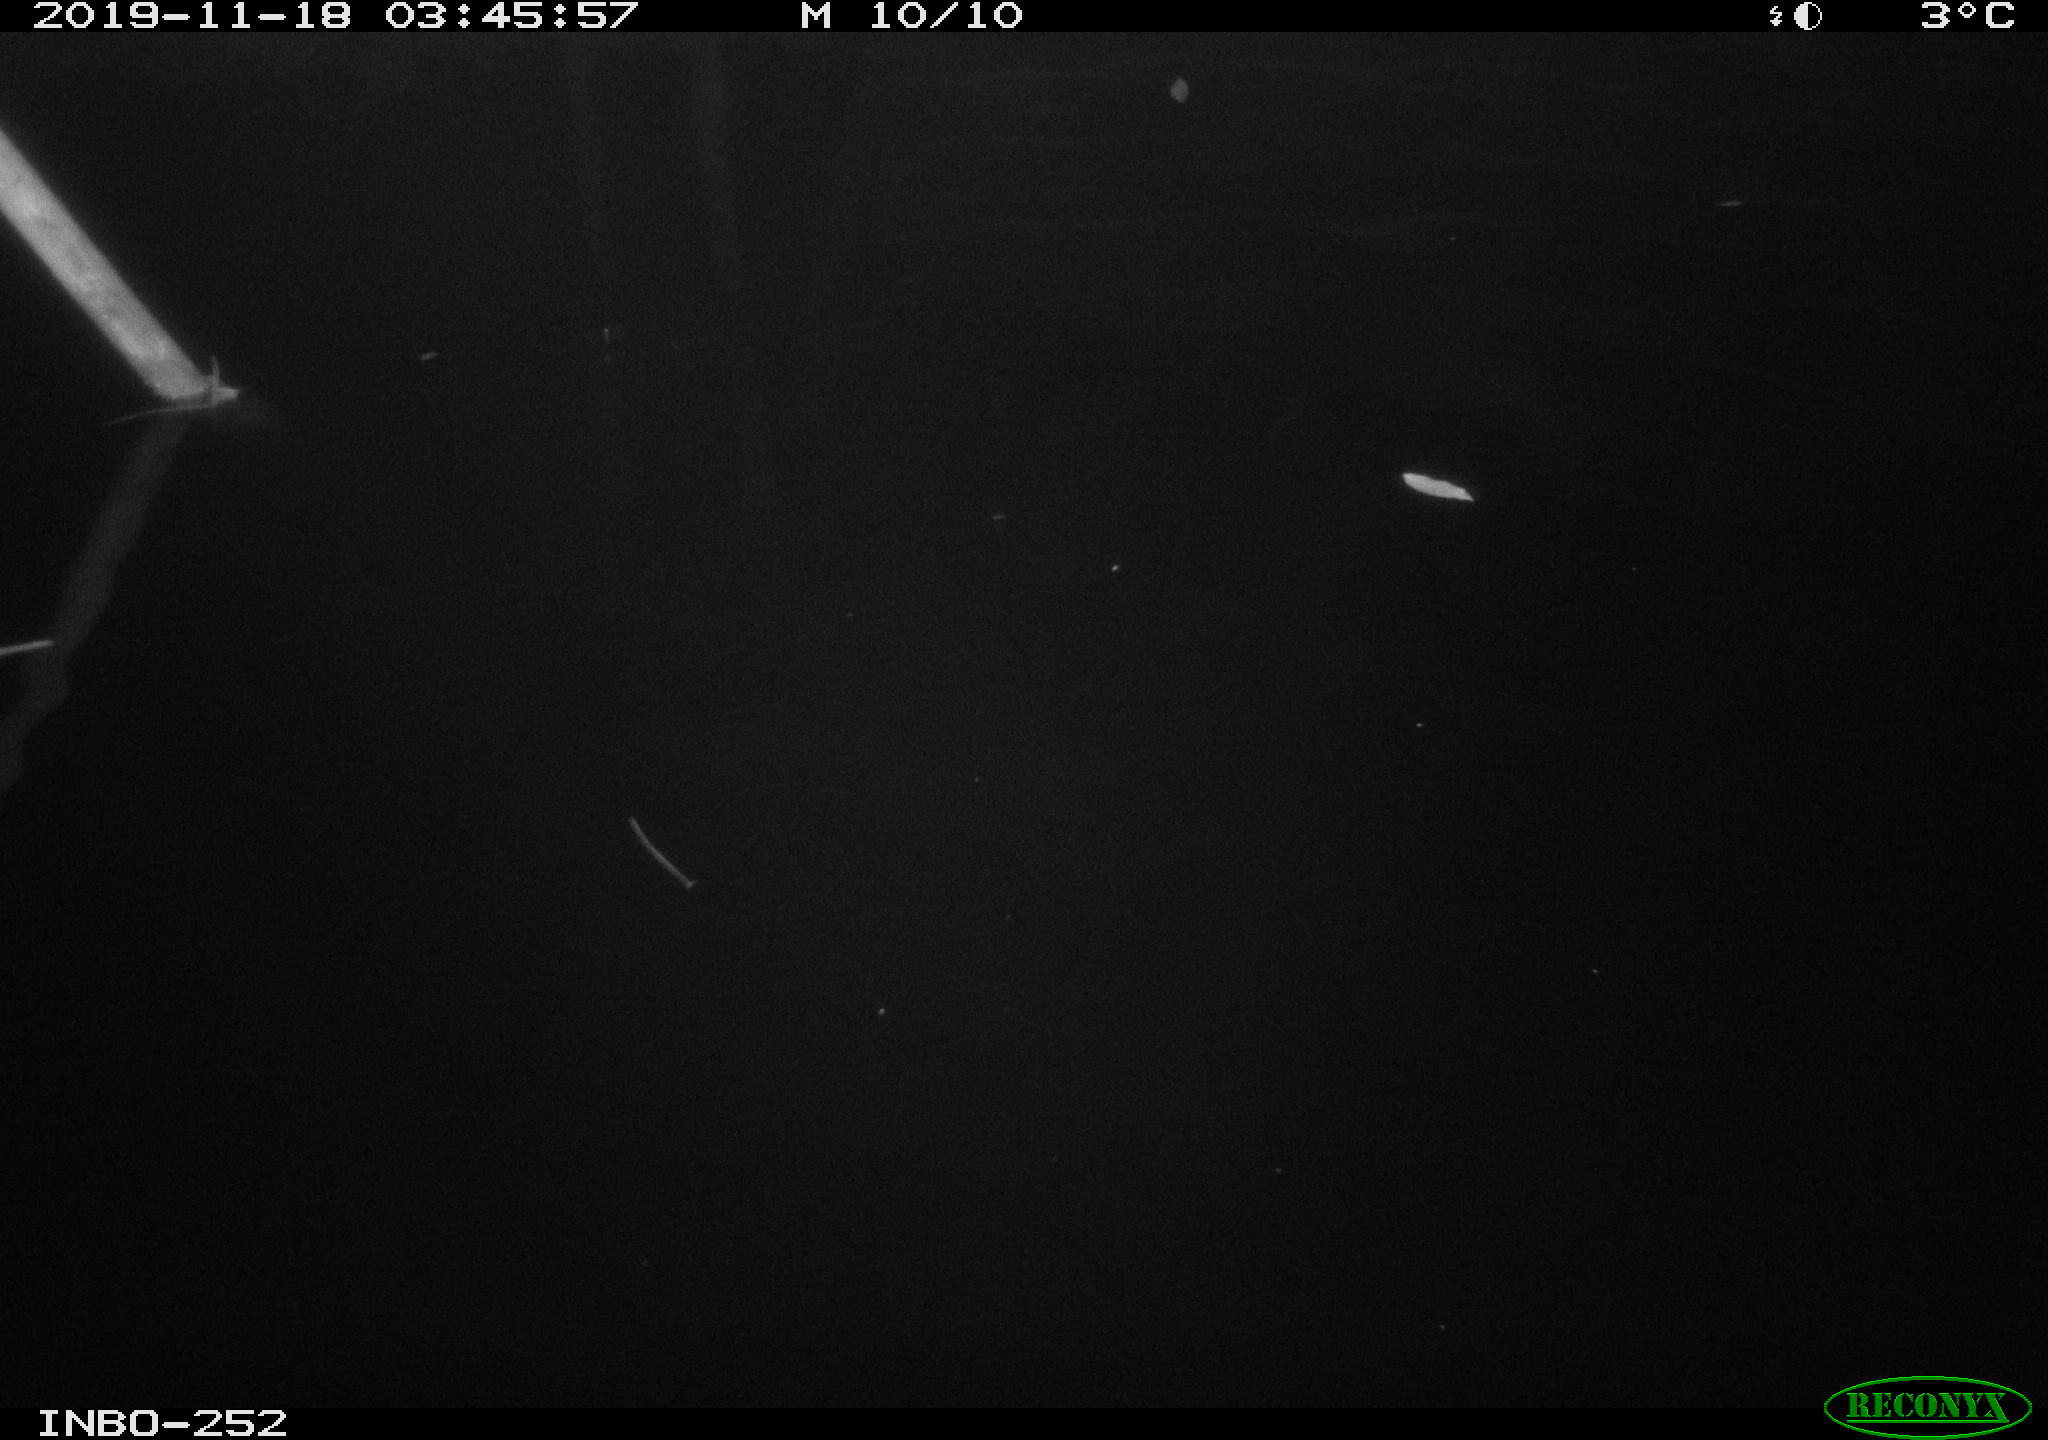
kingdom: Animalia
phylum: Chordata
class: Aves
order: Anseriformes
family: Anatidae
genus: Anas
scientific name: Anas platyrhynchos
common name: Mallard
